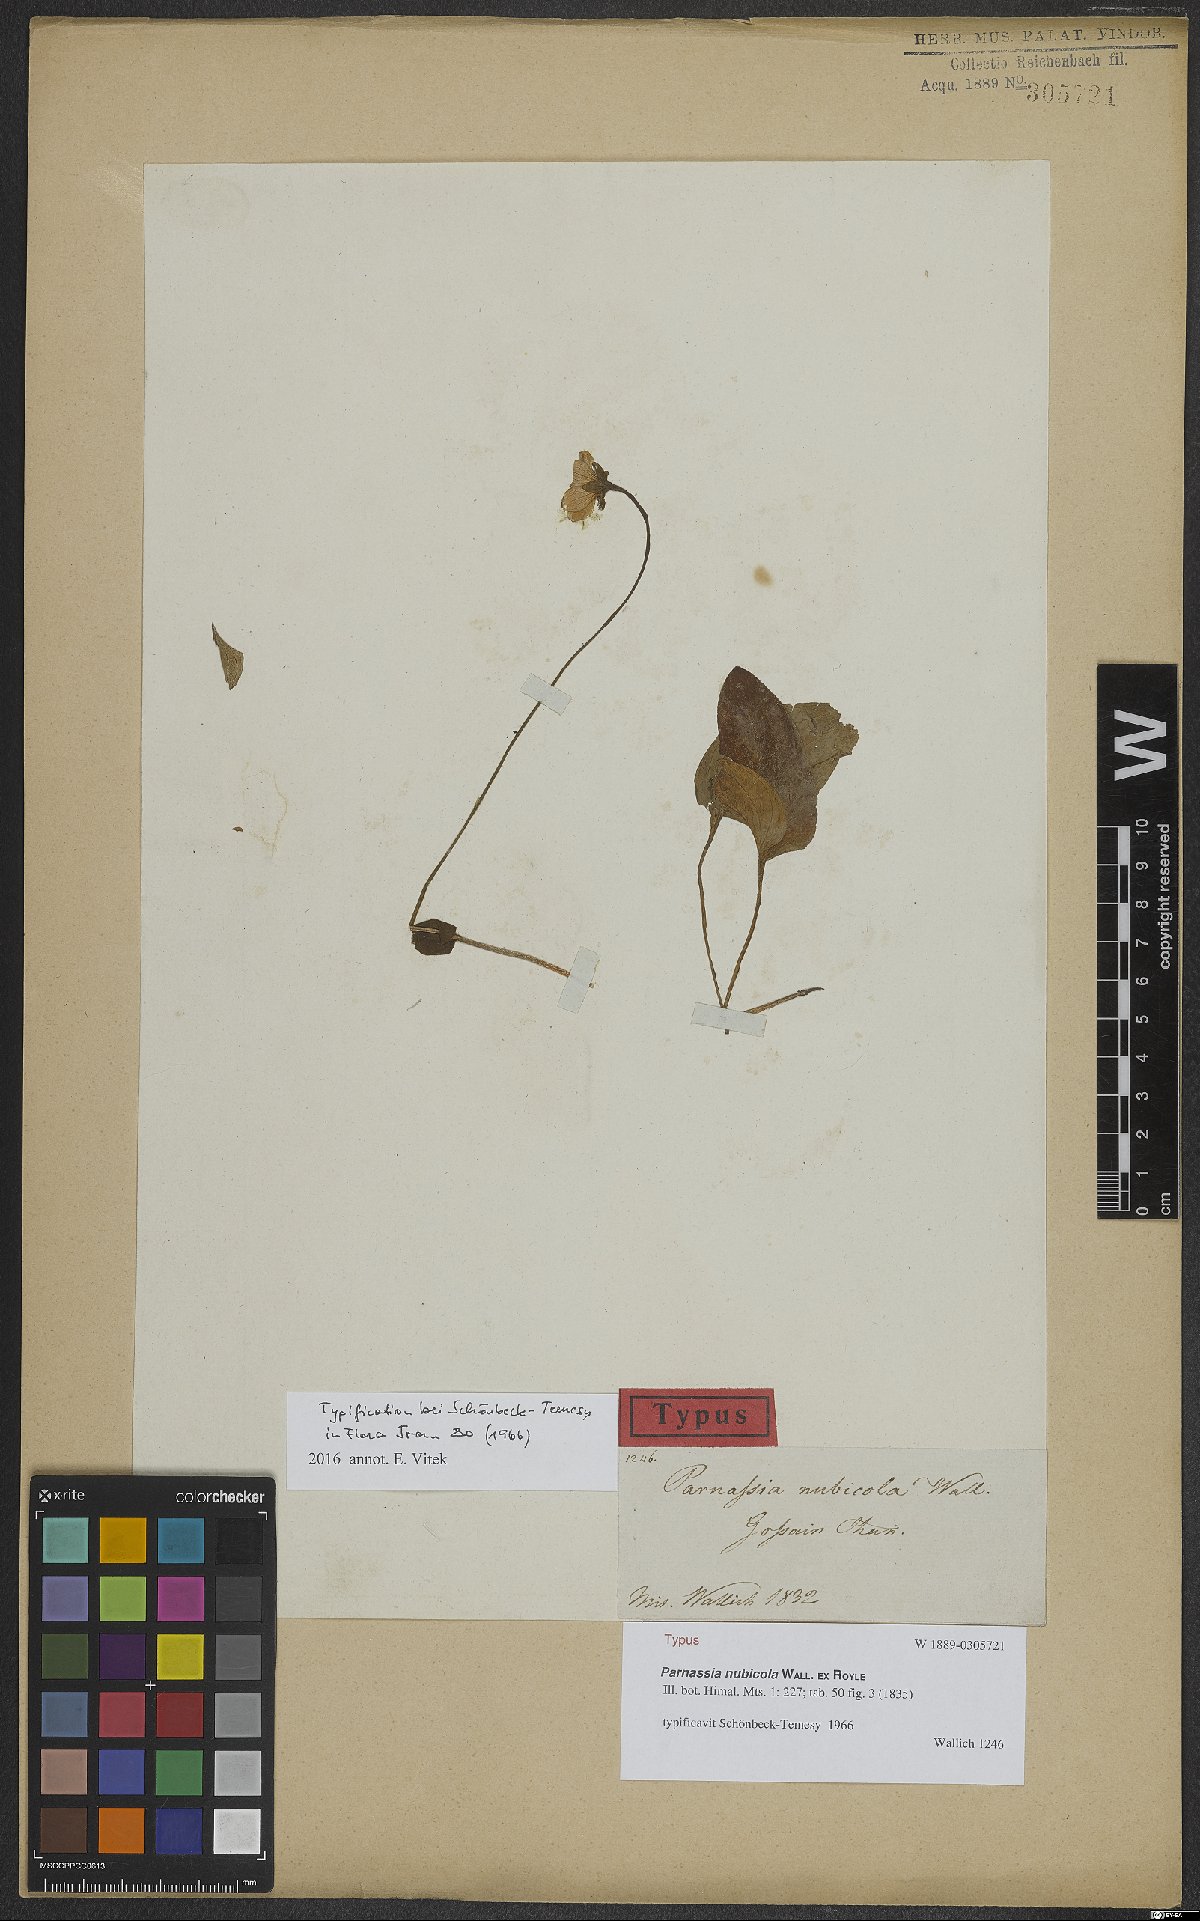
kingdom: Plantae
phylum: Tracheophyta
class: Magnoliopsida
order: Celastrales
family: Parnassiaceae
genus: Parnassia
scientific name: Parnassia nubicola
